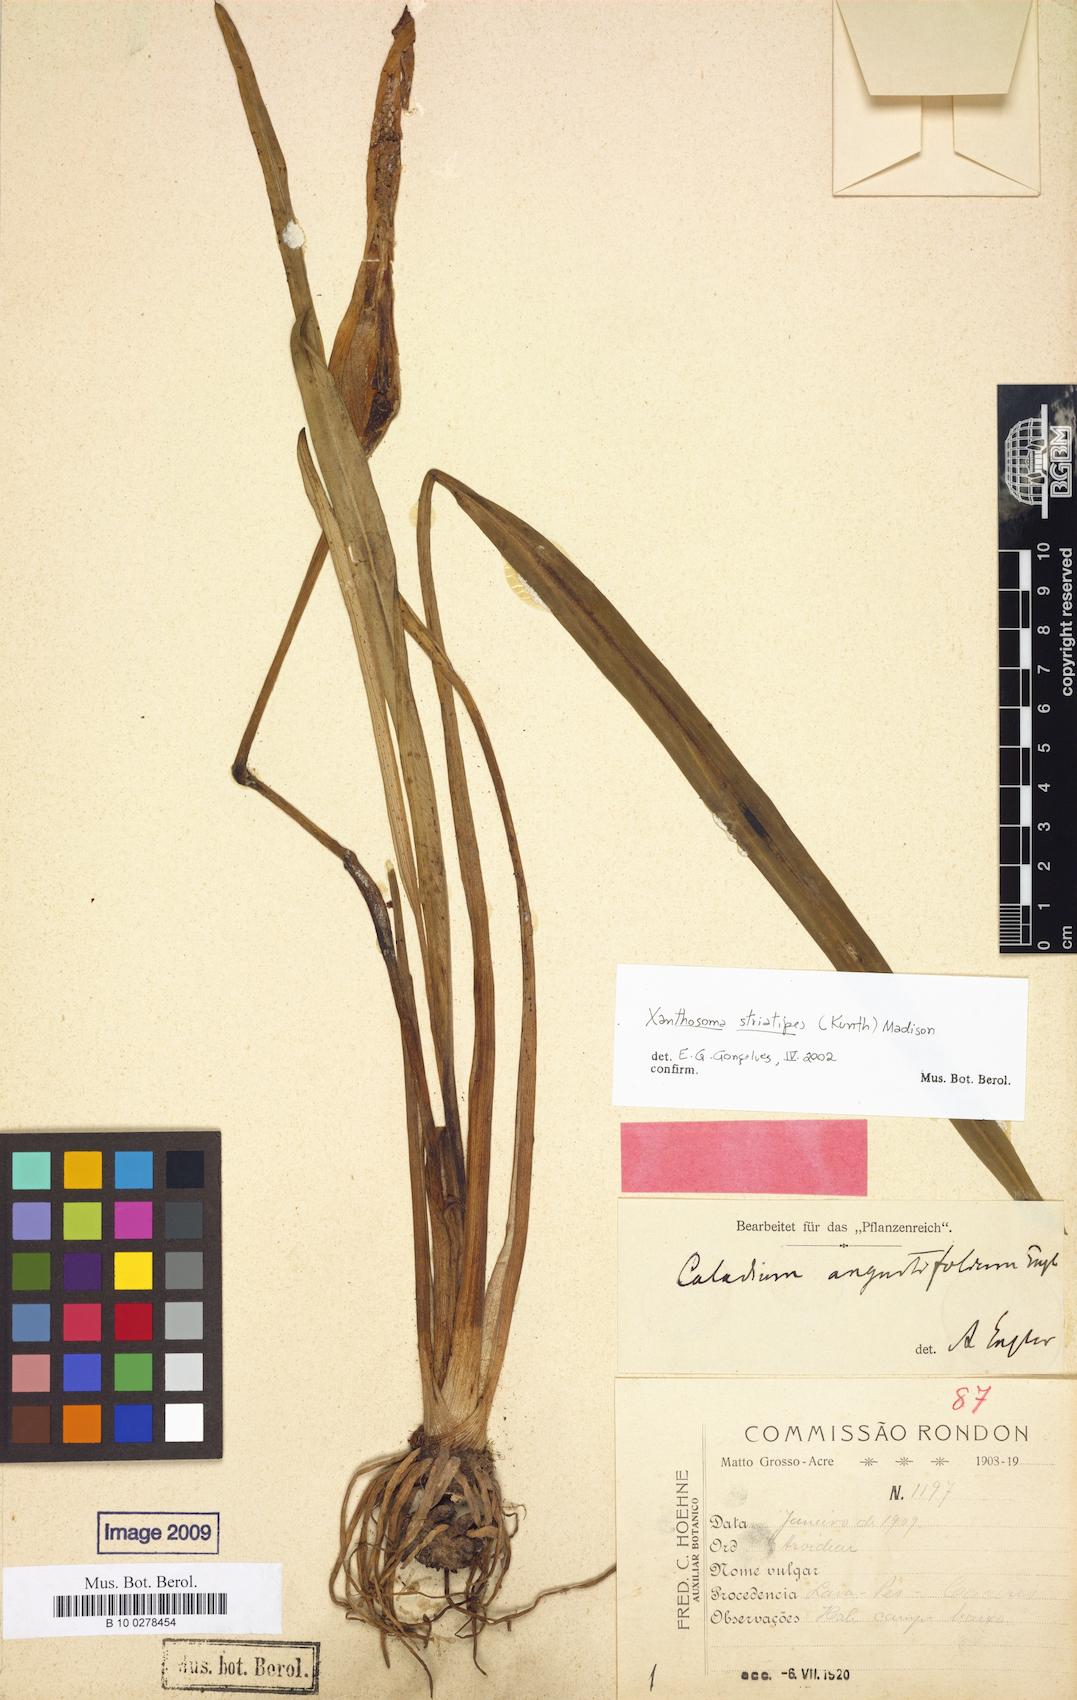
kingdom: Plantae
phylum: Tracheophyta
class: Liliopsida
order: Alismatales
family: Araceae
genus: Xanthosoma
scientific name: Xanthosoma striatipes
